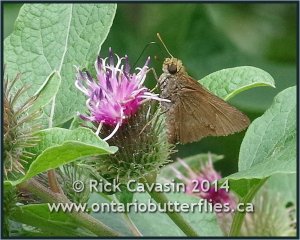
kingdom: Animalia
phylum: Arthropoda
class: Insecta
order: Lepidoptera
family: Hesperiidae
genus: Euphyes
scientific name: Euphyes vestris
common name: Dun Skipper
